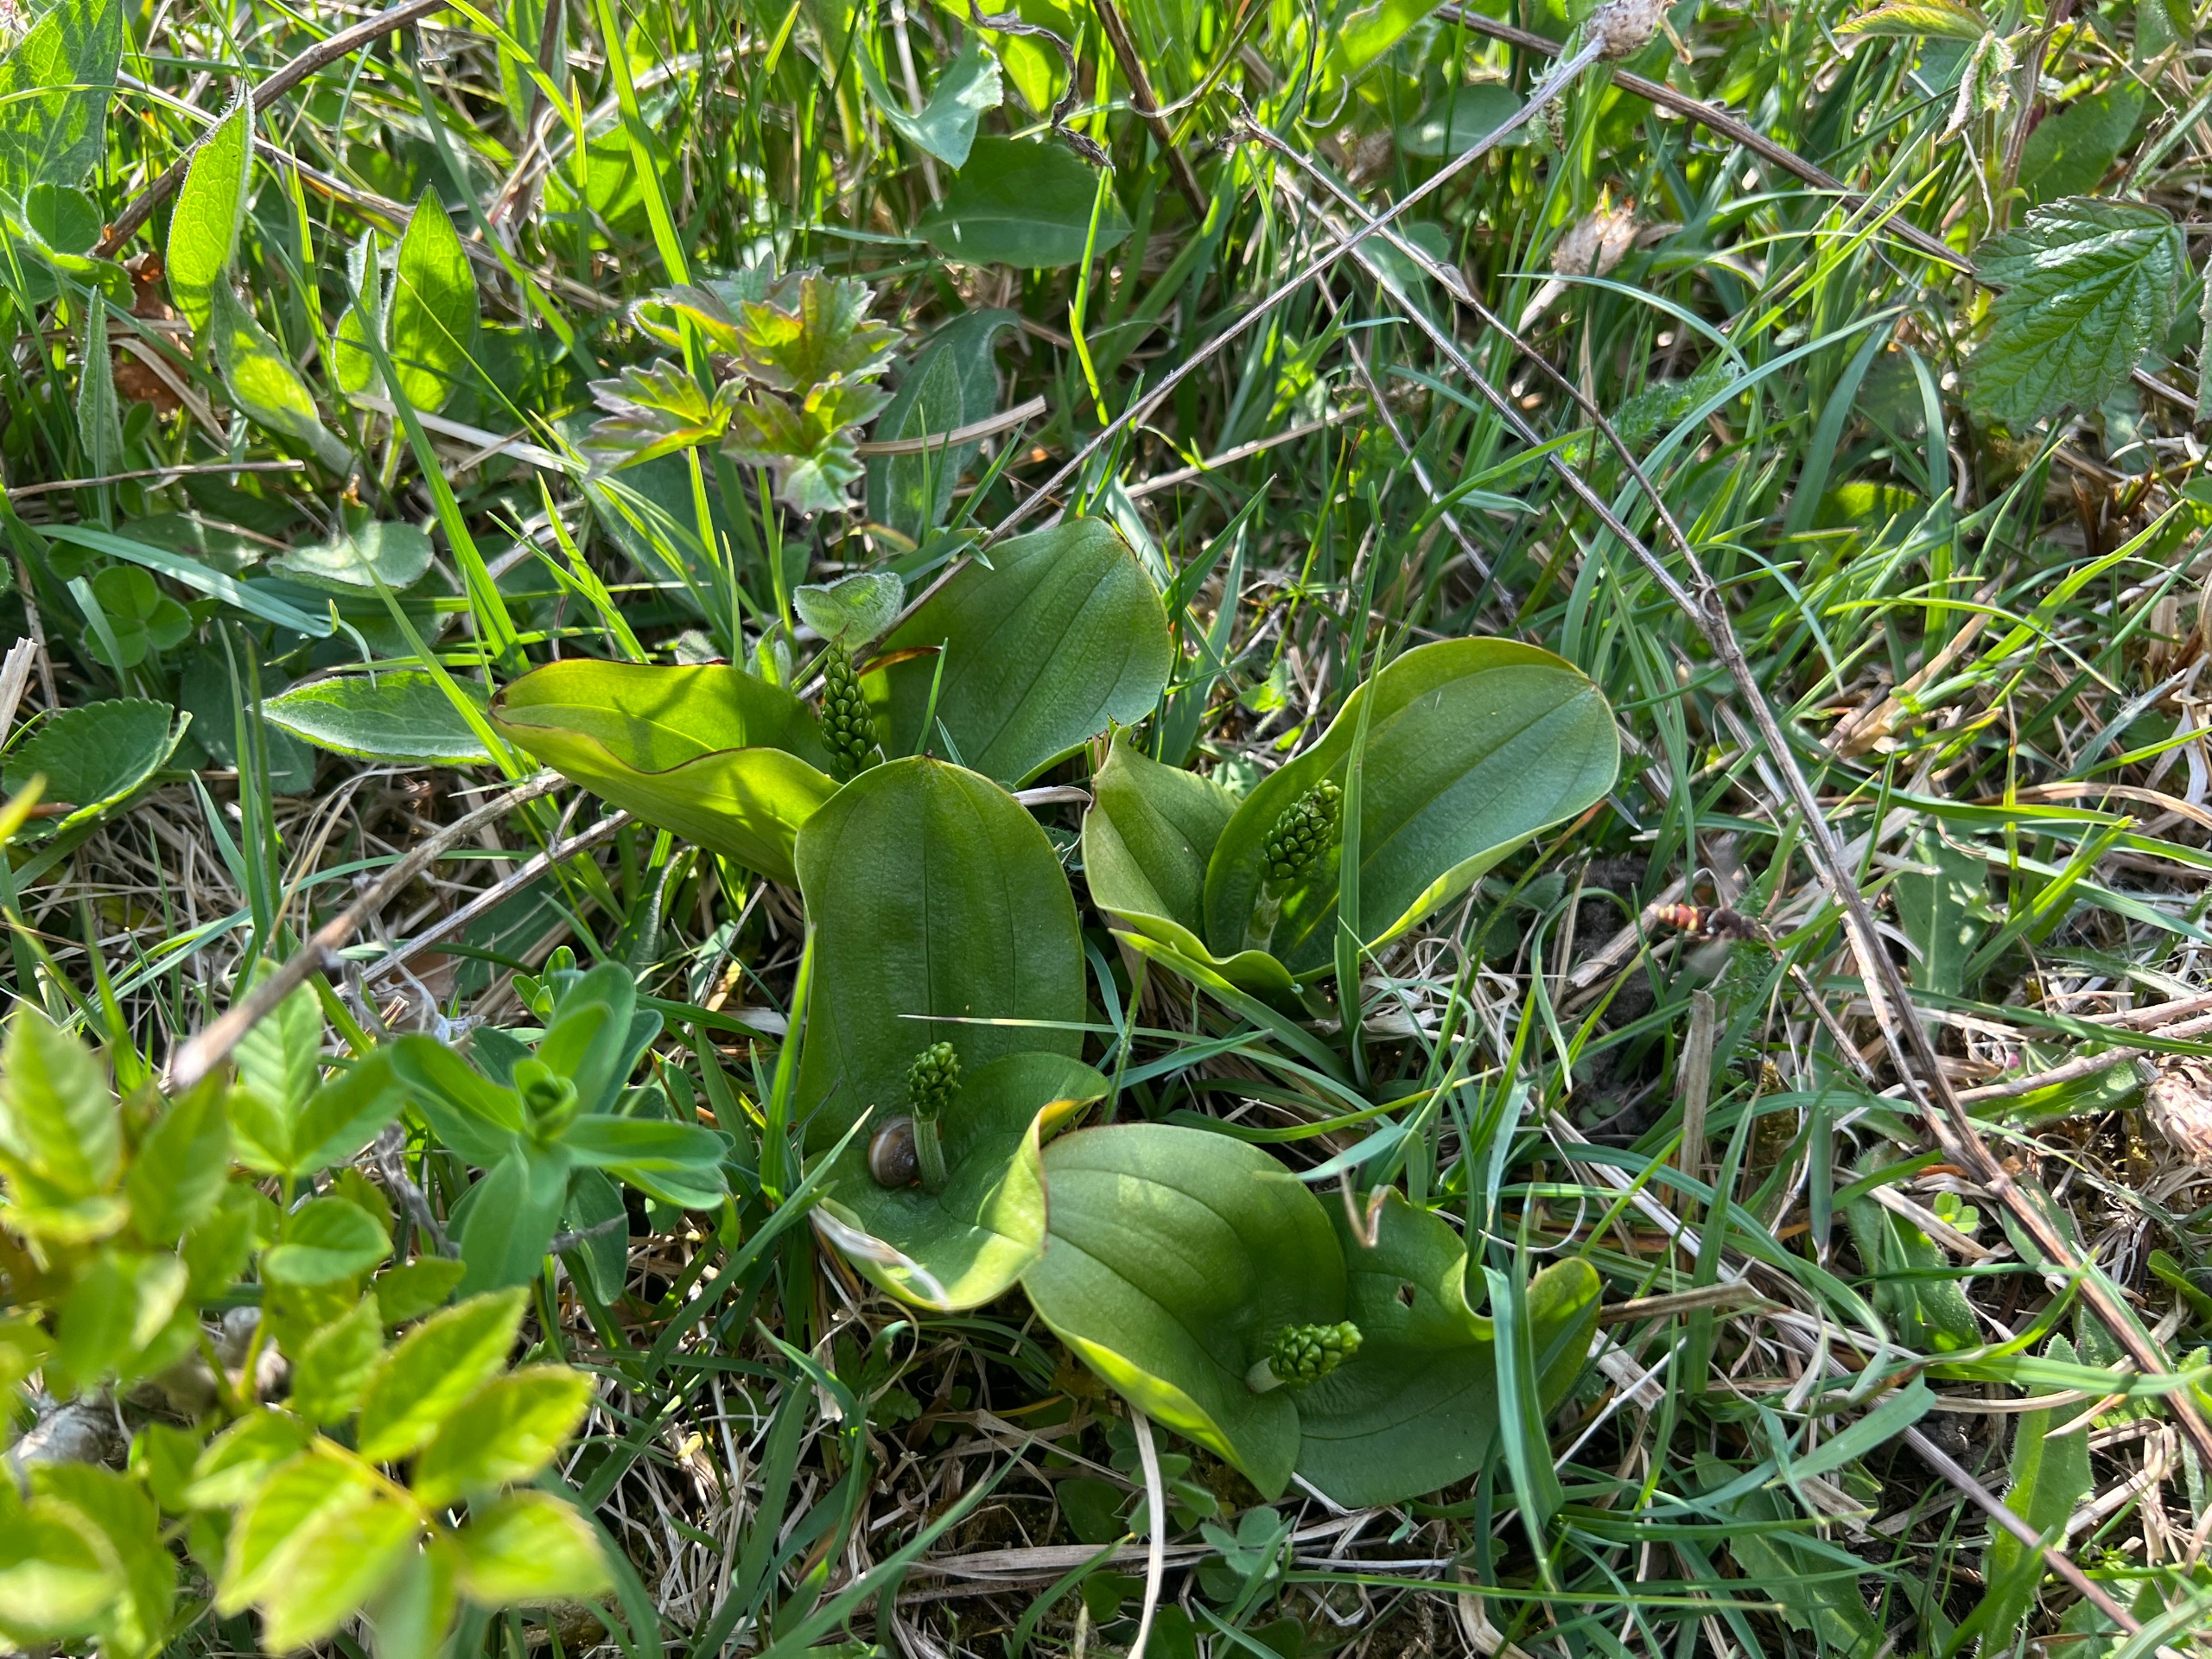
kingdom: Plantae
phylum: Tracheophyta
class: Liliopsida
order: Asparagales
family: Orchidaceae
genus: Neottia
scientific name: Neottia ovata
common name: Ægbladet fliglæbe
